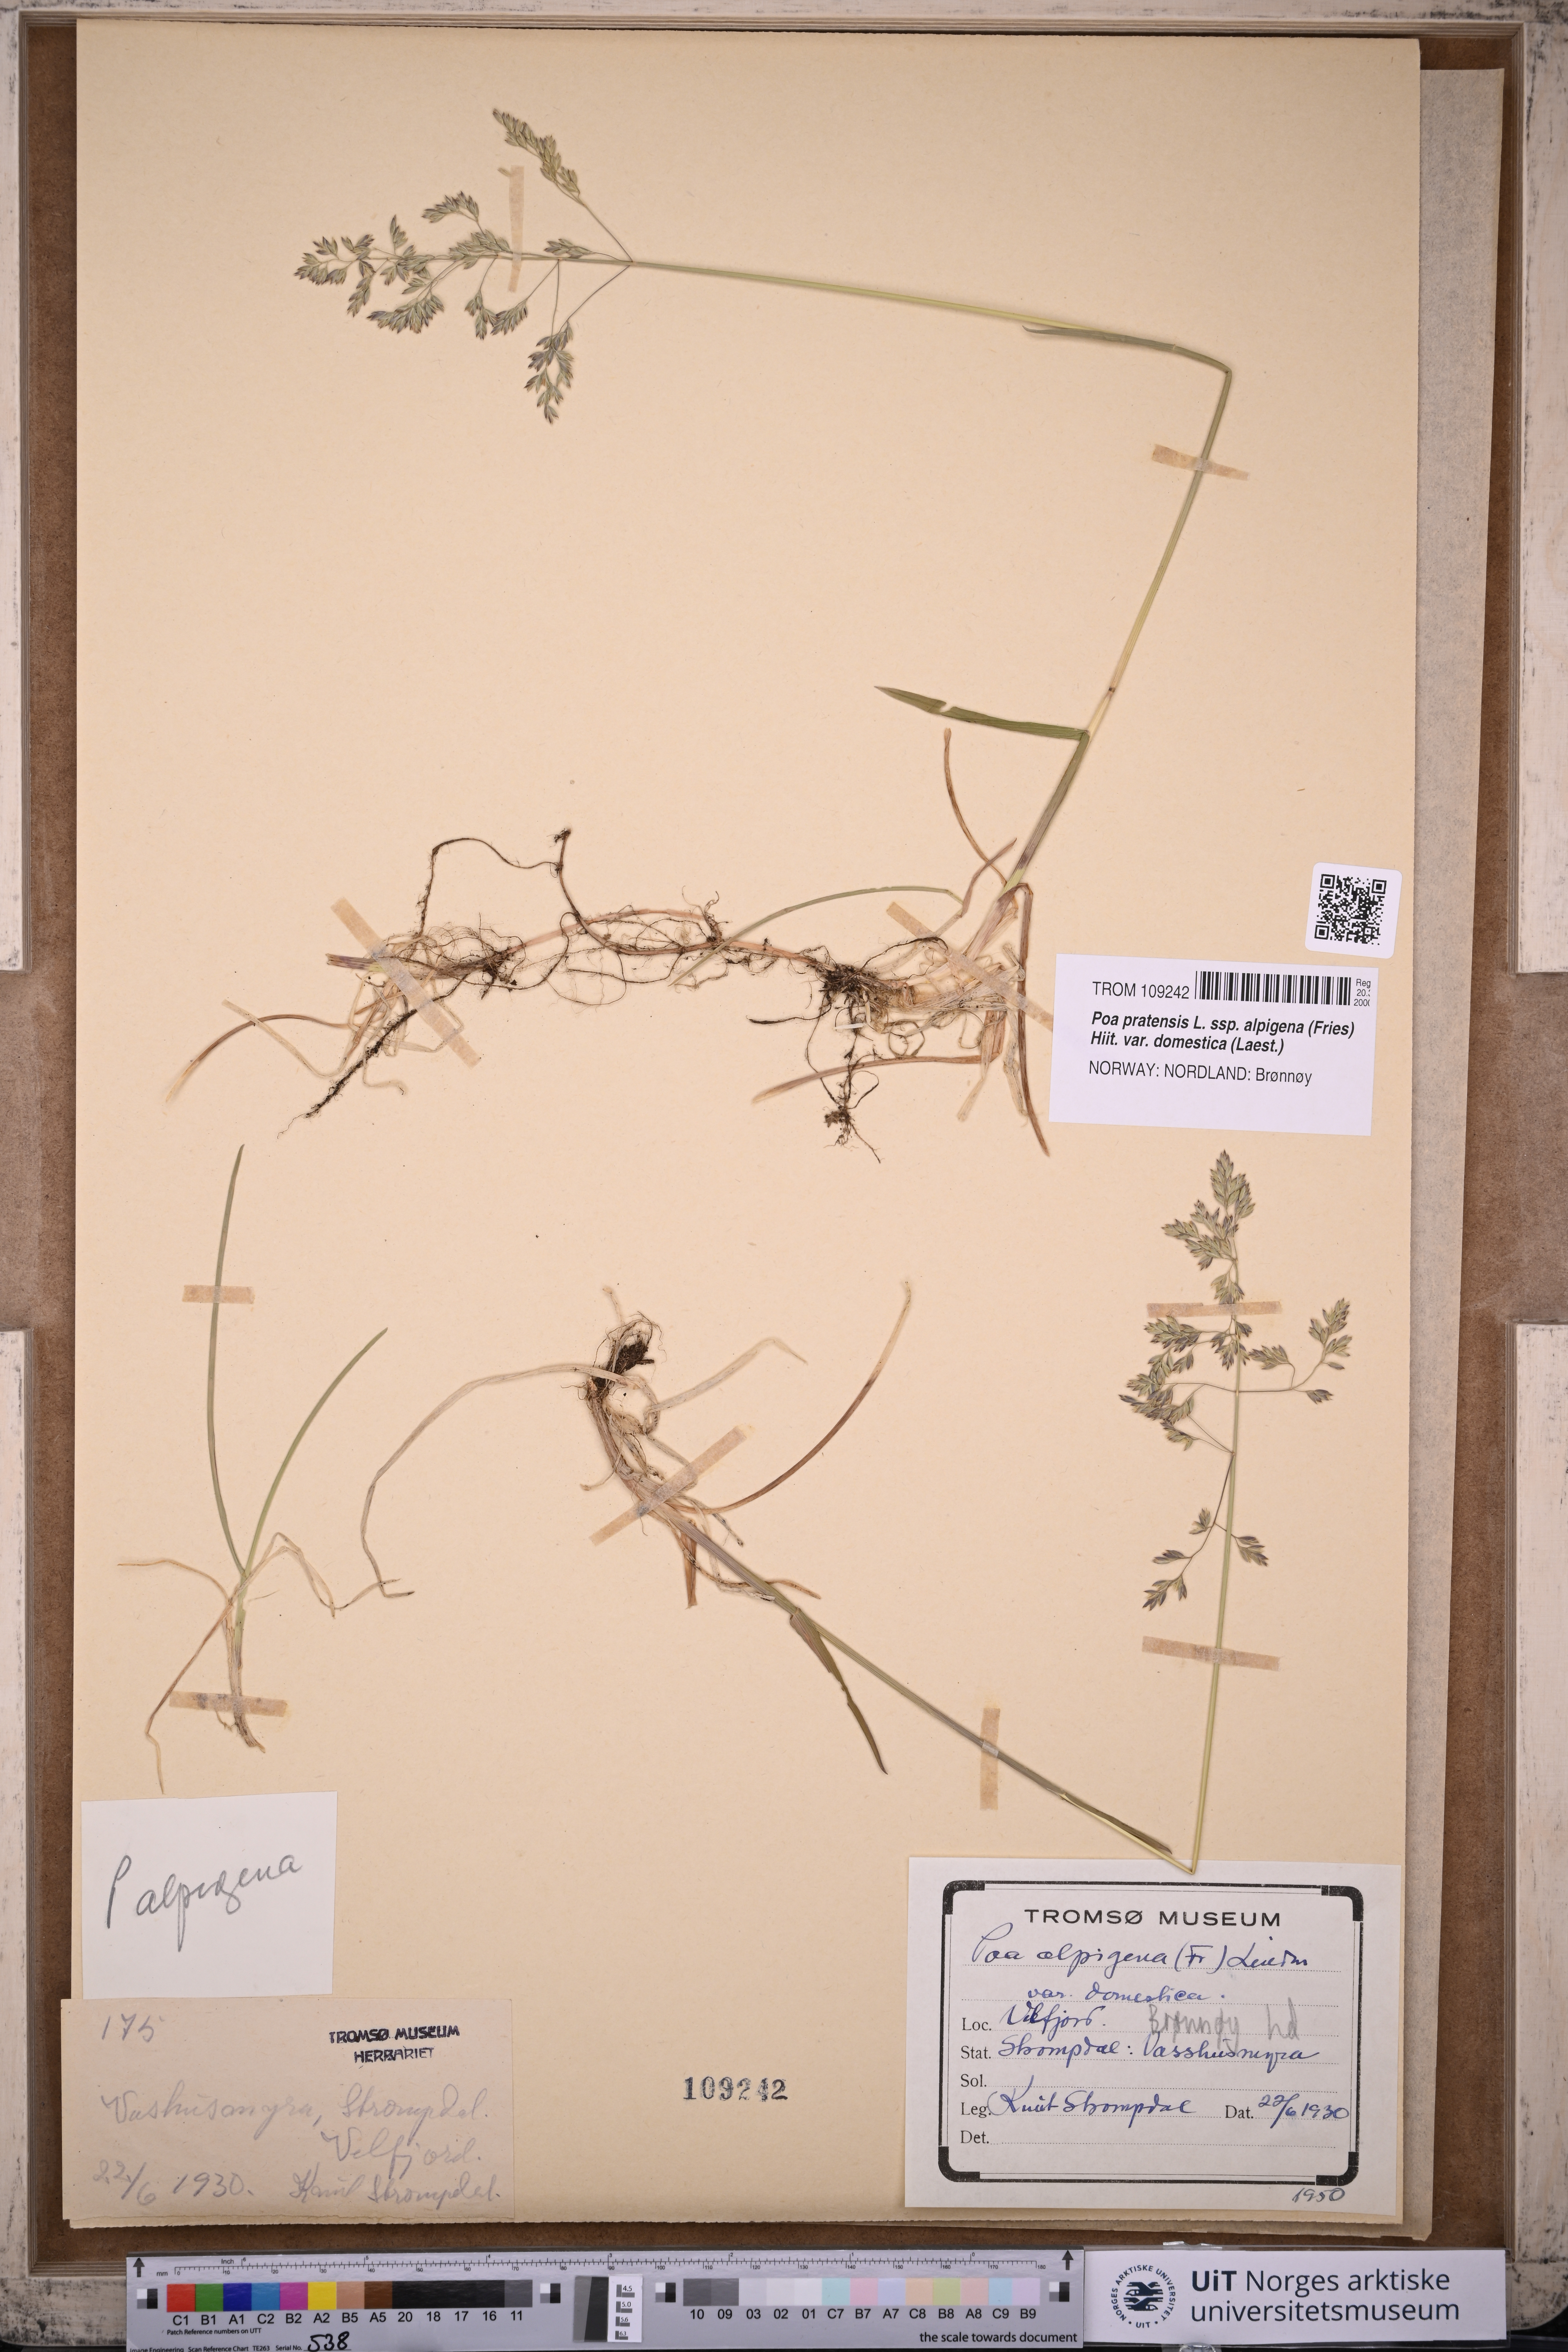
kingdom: Plantae
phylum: Tracheophyta
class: Liliopsida
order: Poales
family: Poaceae
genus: Poa
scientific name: Poa pratensis
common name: Kentucky bluegrass
